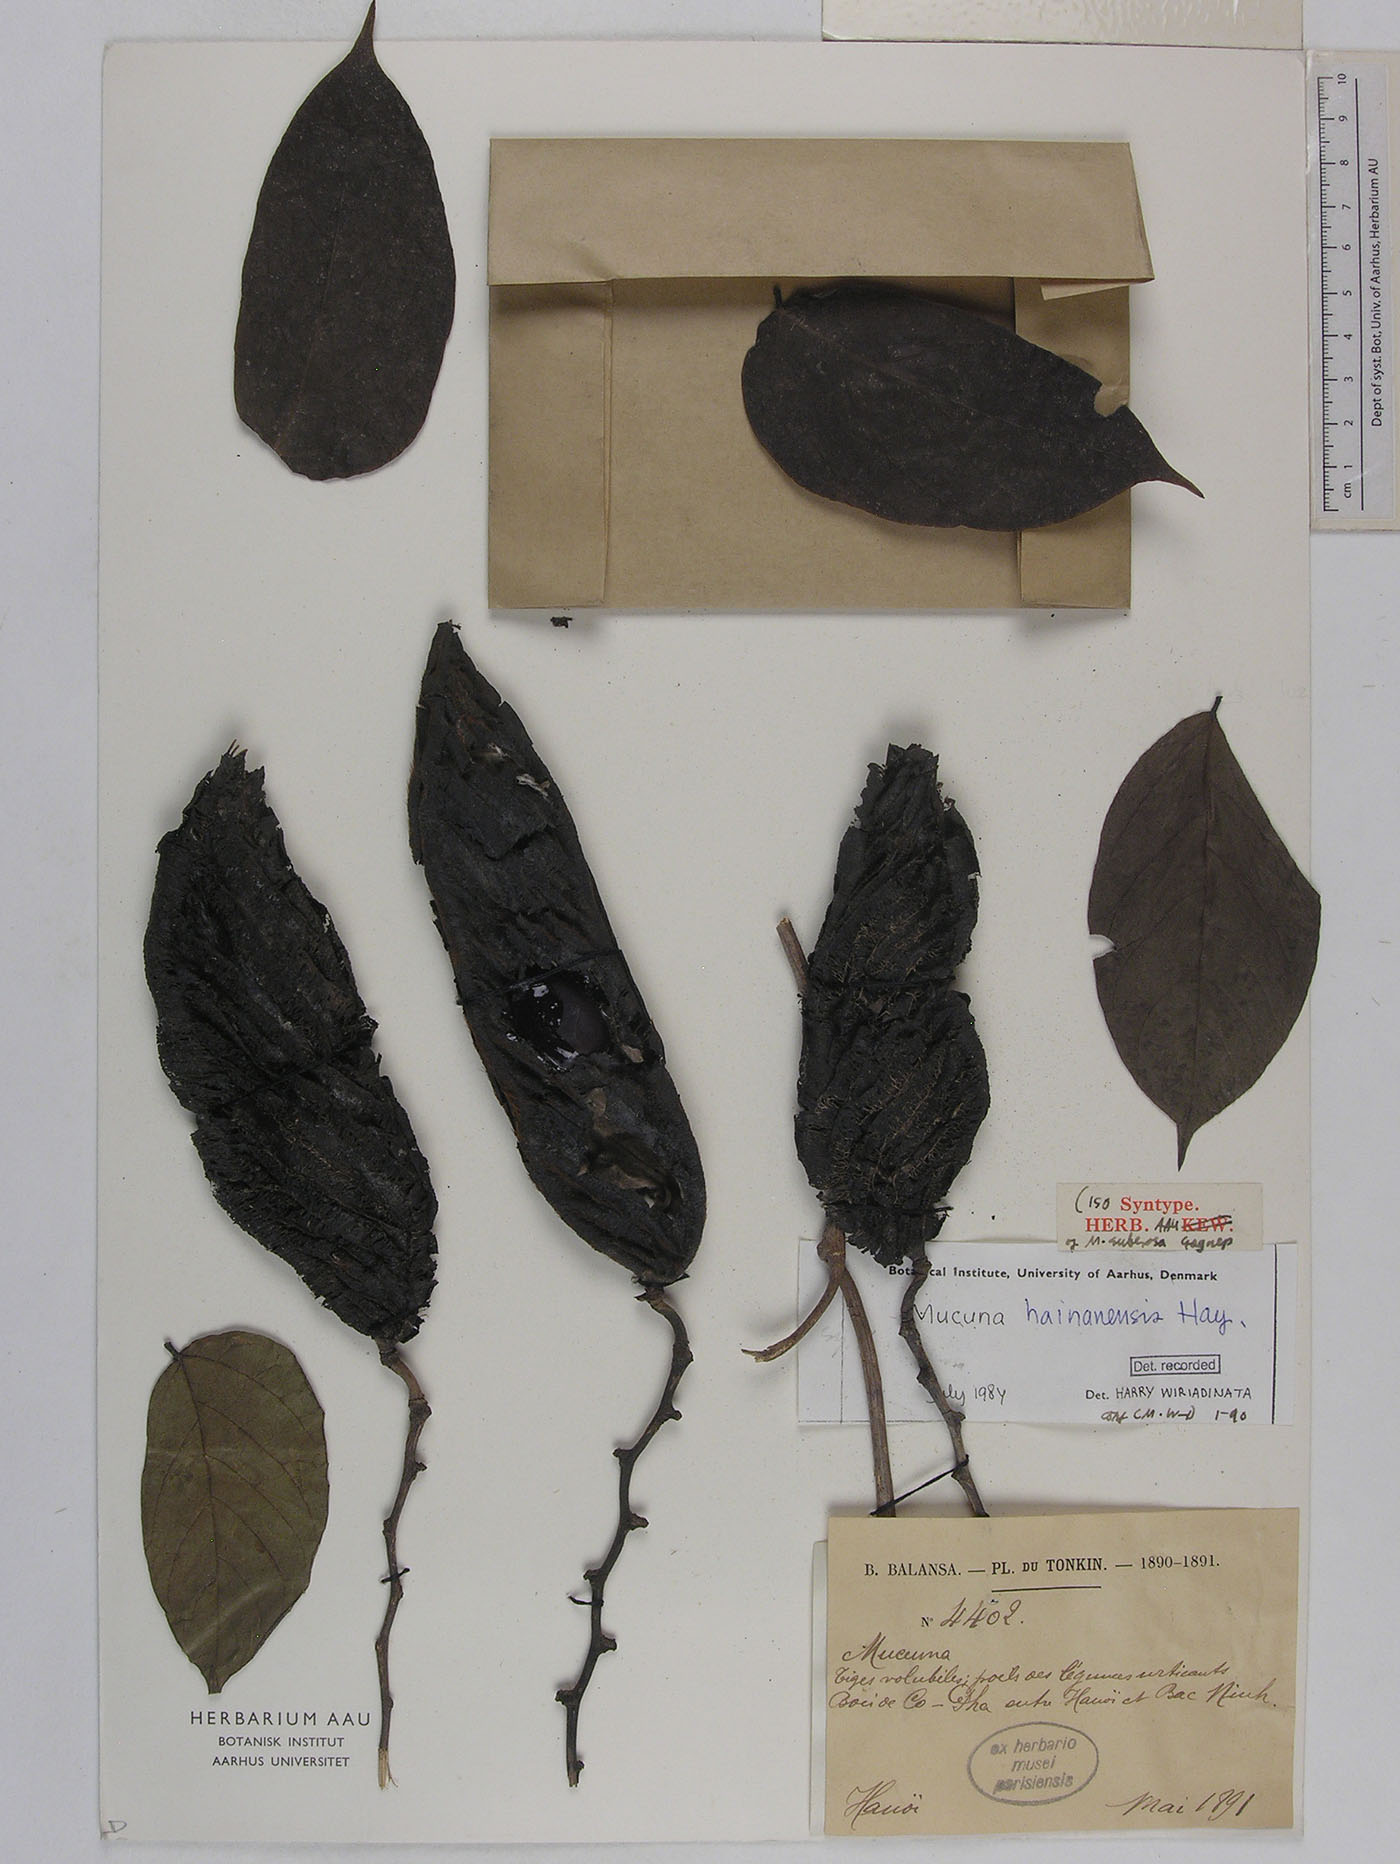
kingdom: Plantae
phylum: Tracheophyta
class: Magnoliopsida
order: Fabales
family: Fabaceae
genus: Mucuna
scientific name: Mucuna hainanensis
